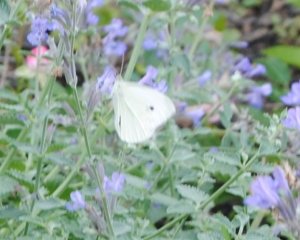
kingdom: Animalia
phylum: Arthropoda
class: Insecta
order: Lepidoptera
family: Pieridae
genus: Pieris
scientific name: Pieris rapae
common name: Cabbage White
